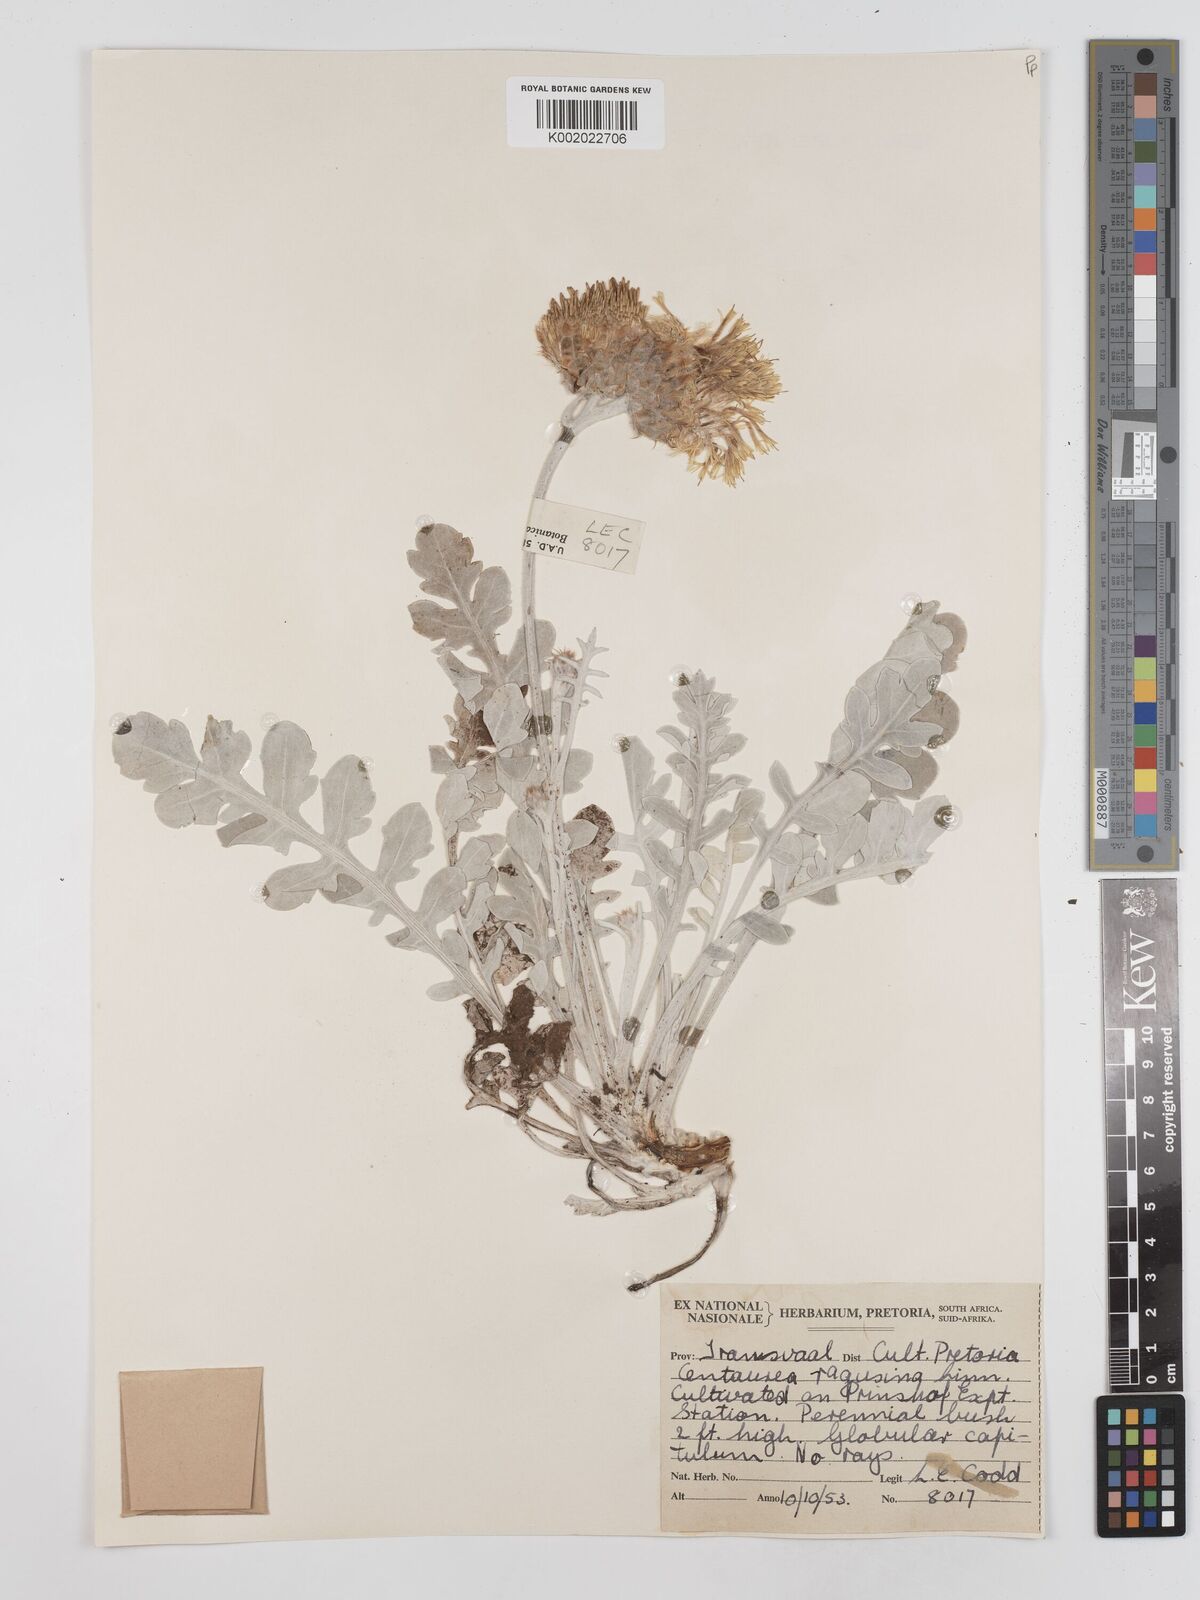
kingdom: Plantae
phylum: Tracheophyta
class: Magnoliopsida
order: Asterales
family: Asteraceae
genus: Centaurea
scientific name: Centaurea ragusina
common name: Dusty-miller
